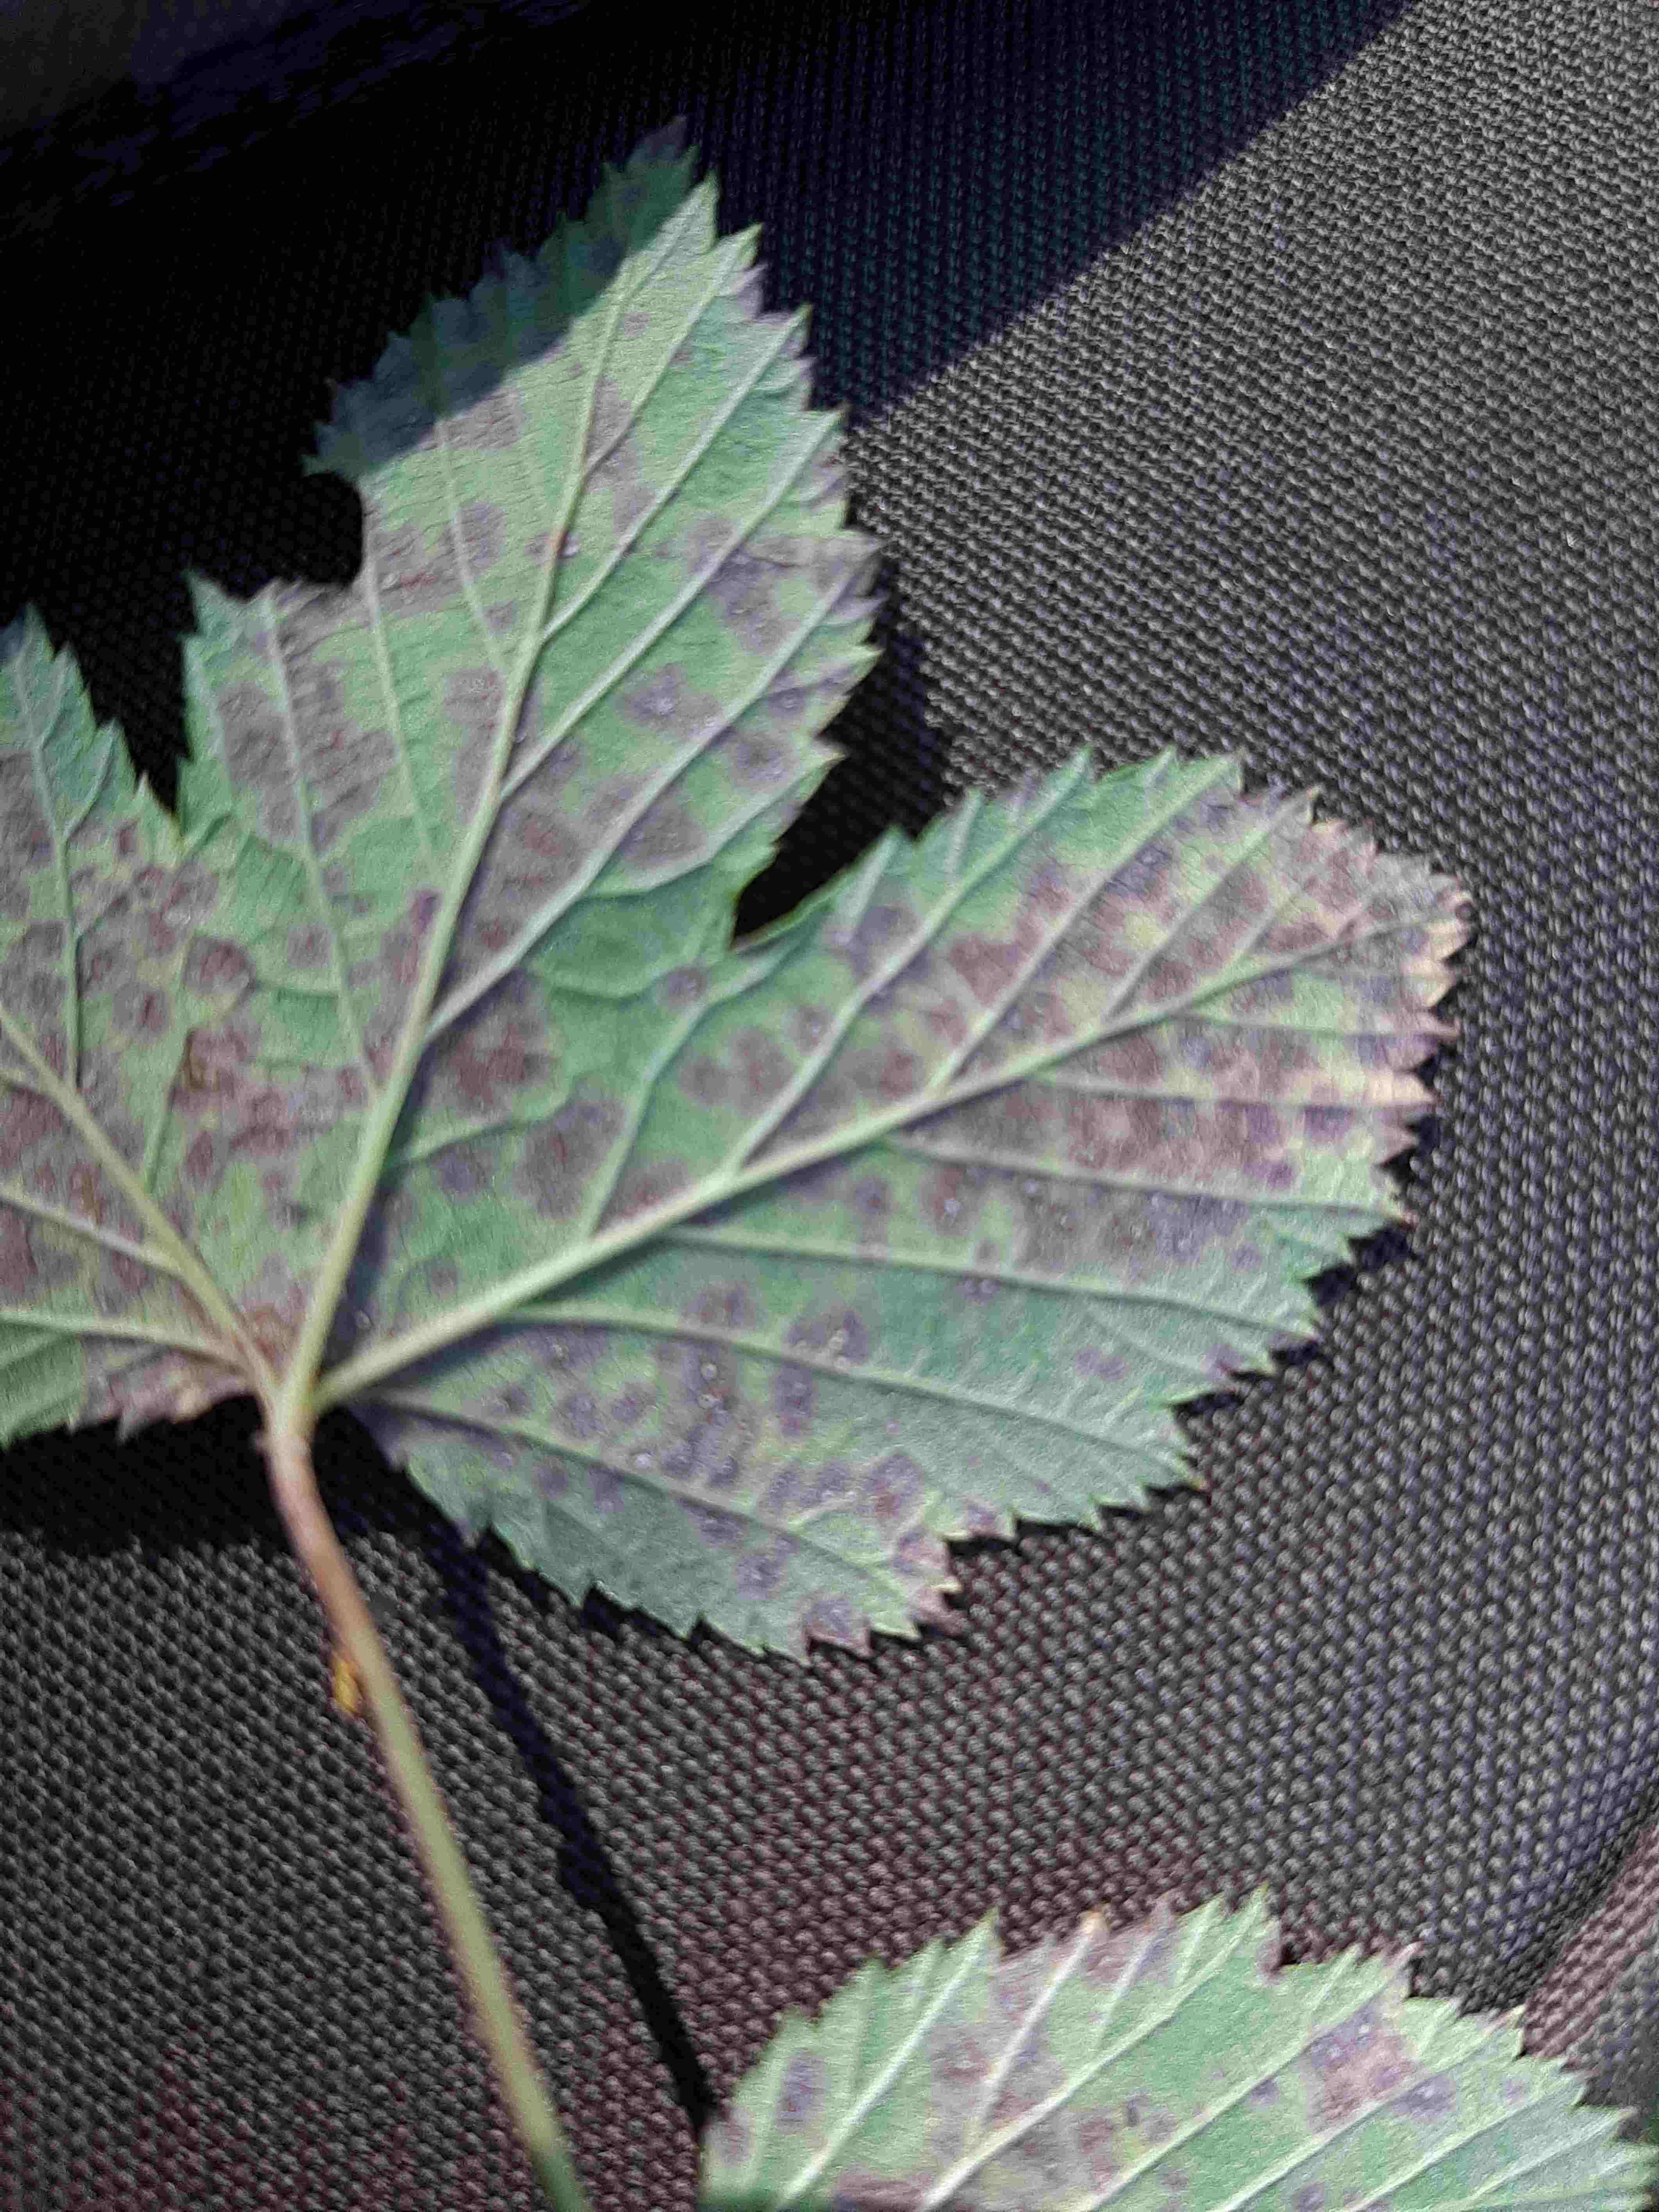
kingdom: Fungi
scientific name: Fungi
